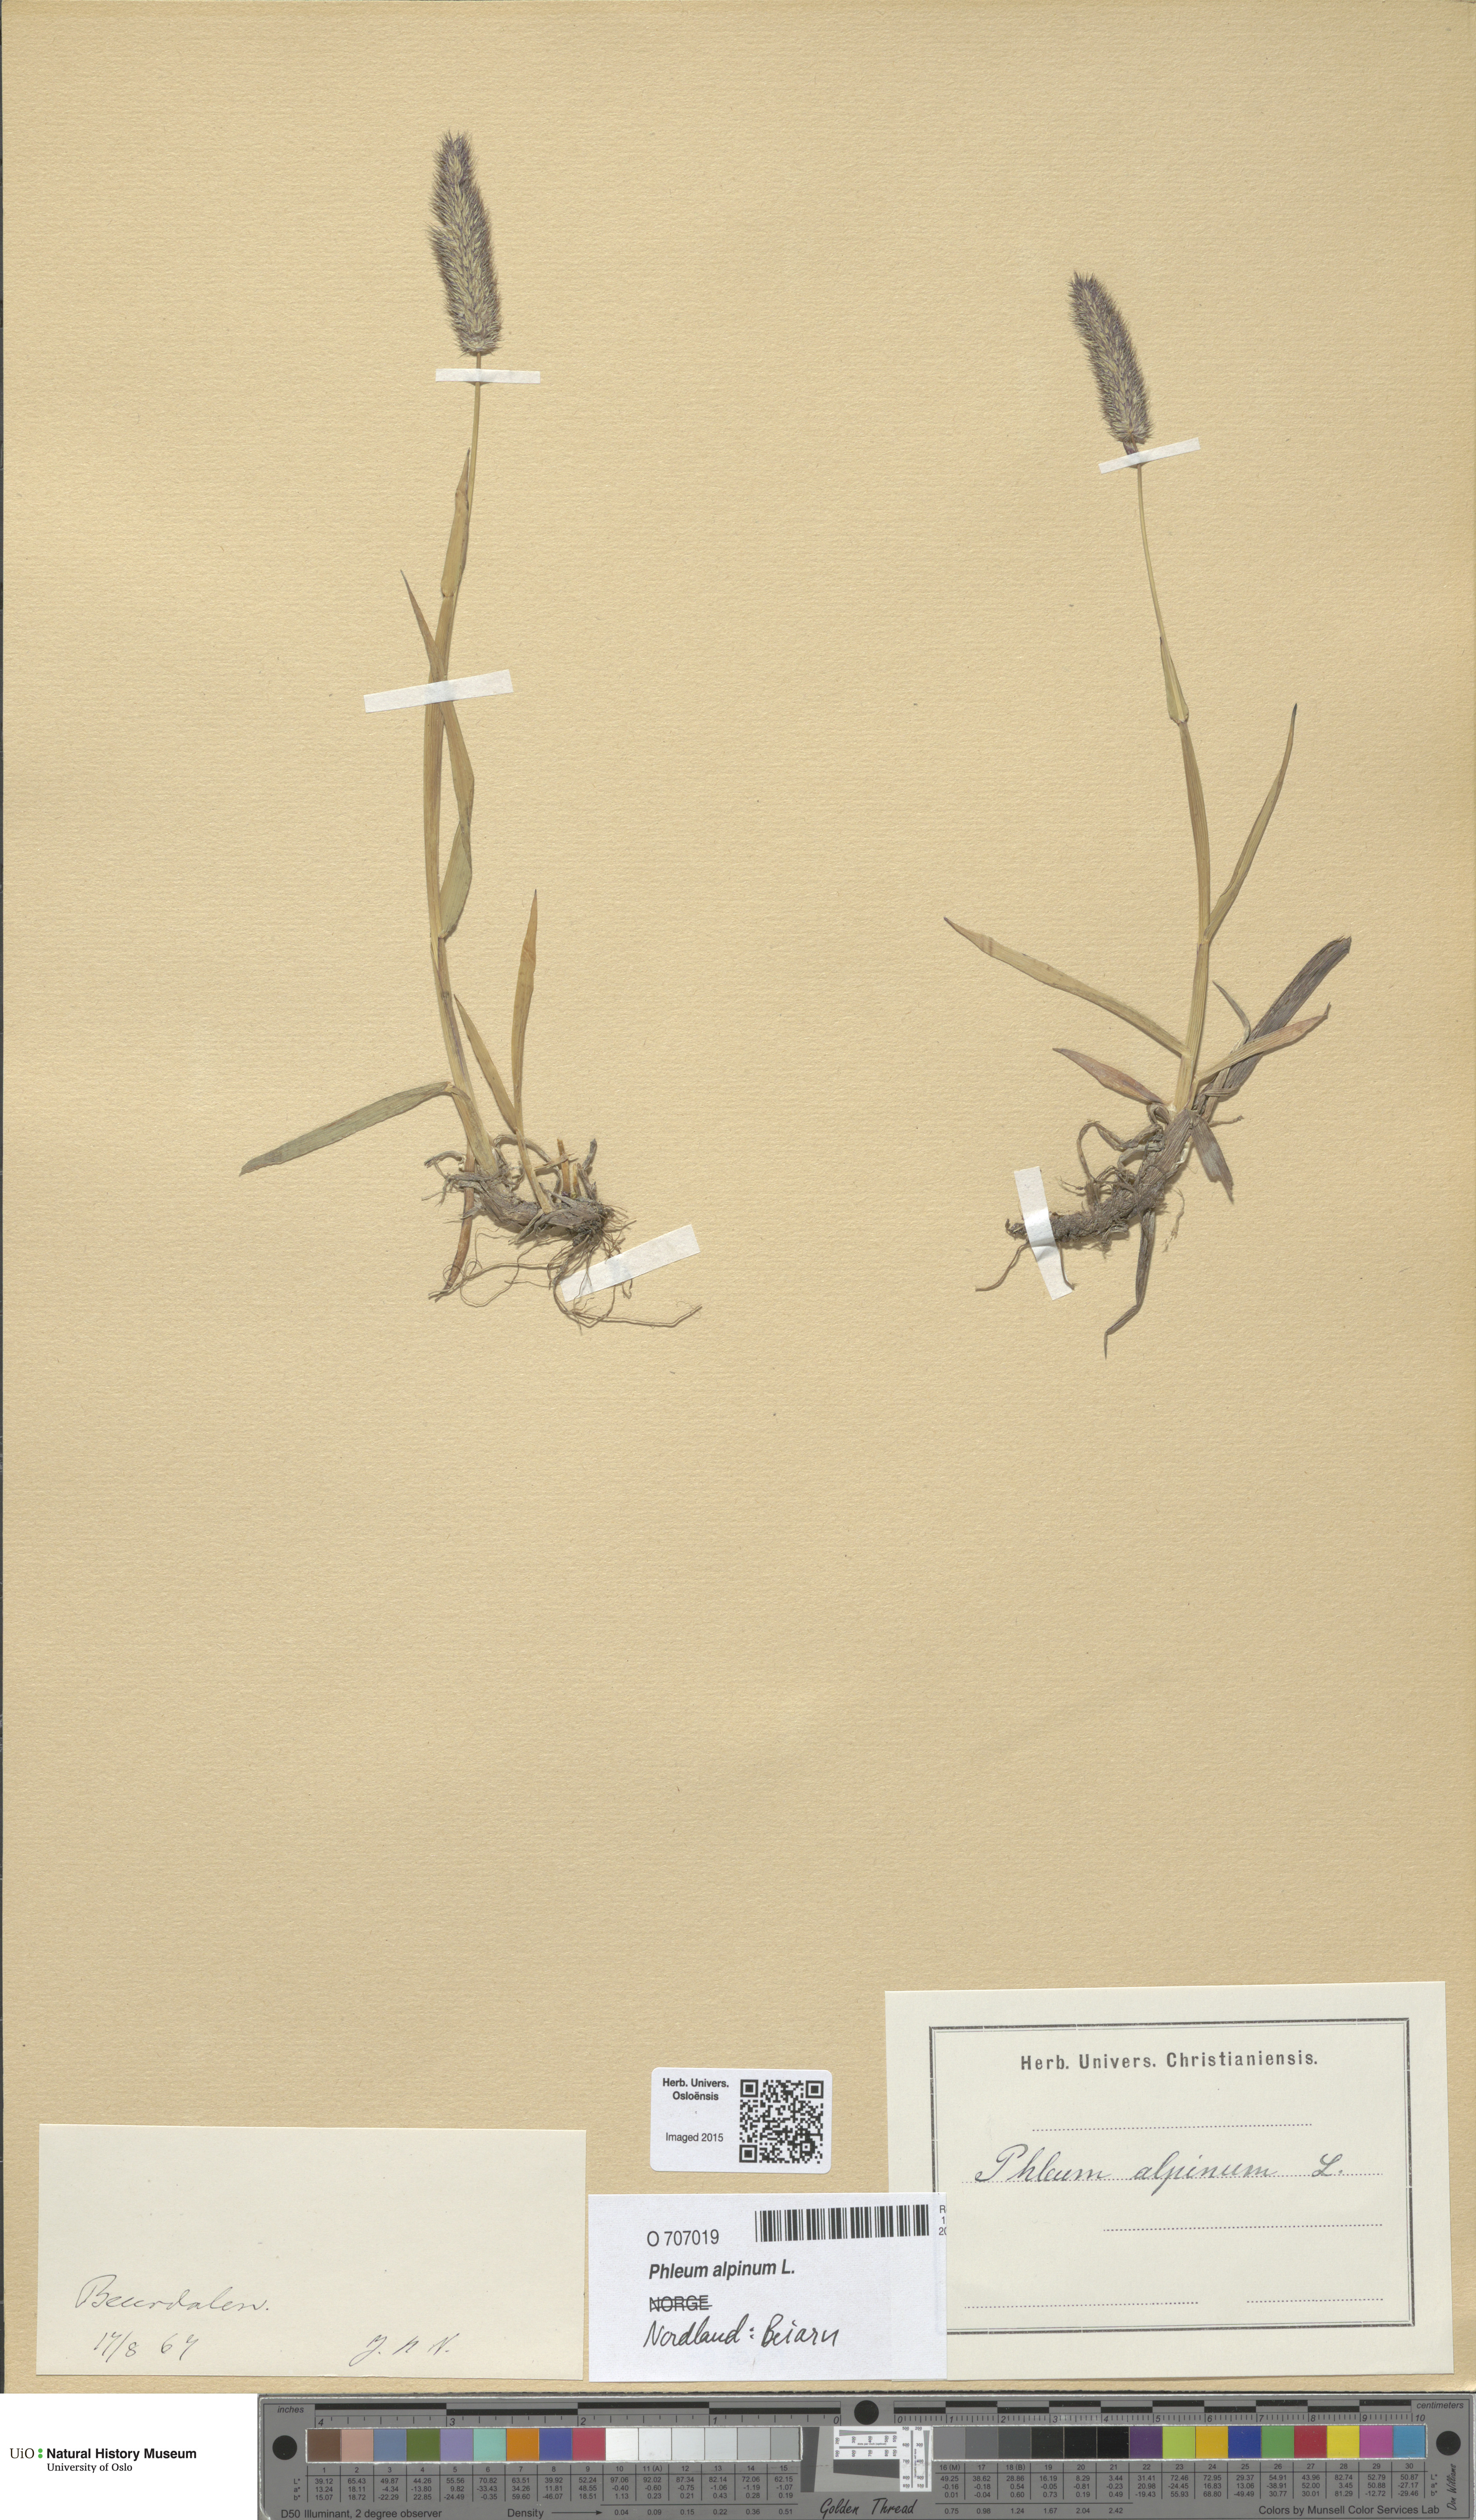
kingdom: Plantae
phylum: Tracheophyta
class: Liliopsida
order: Poales
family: Poaceae
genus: Phleum
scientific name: Phleum alpinum
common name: Alpine cat's-tail
